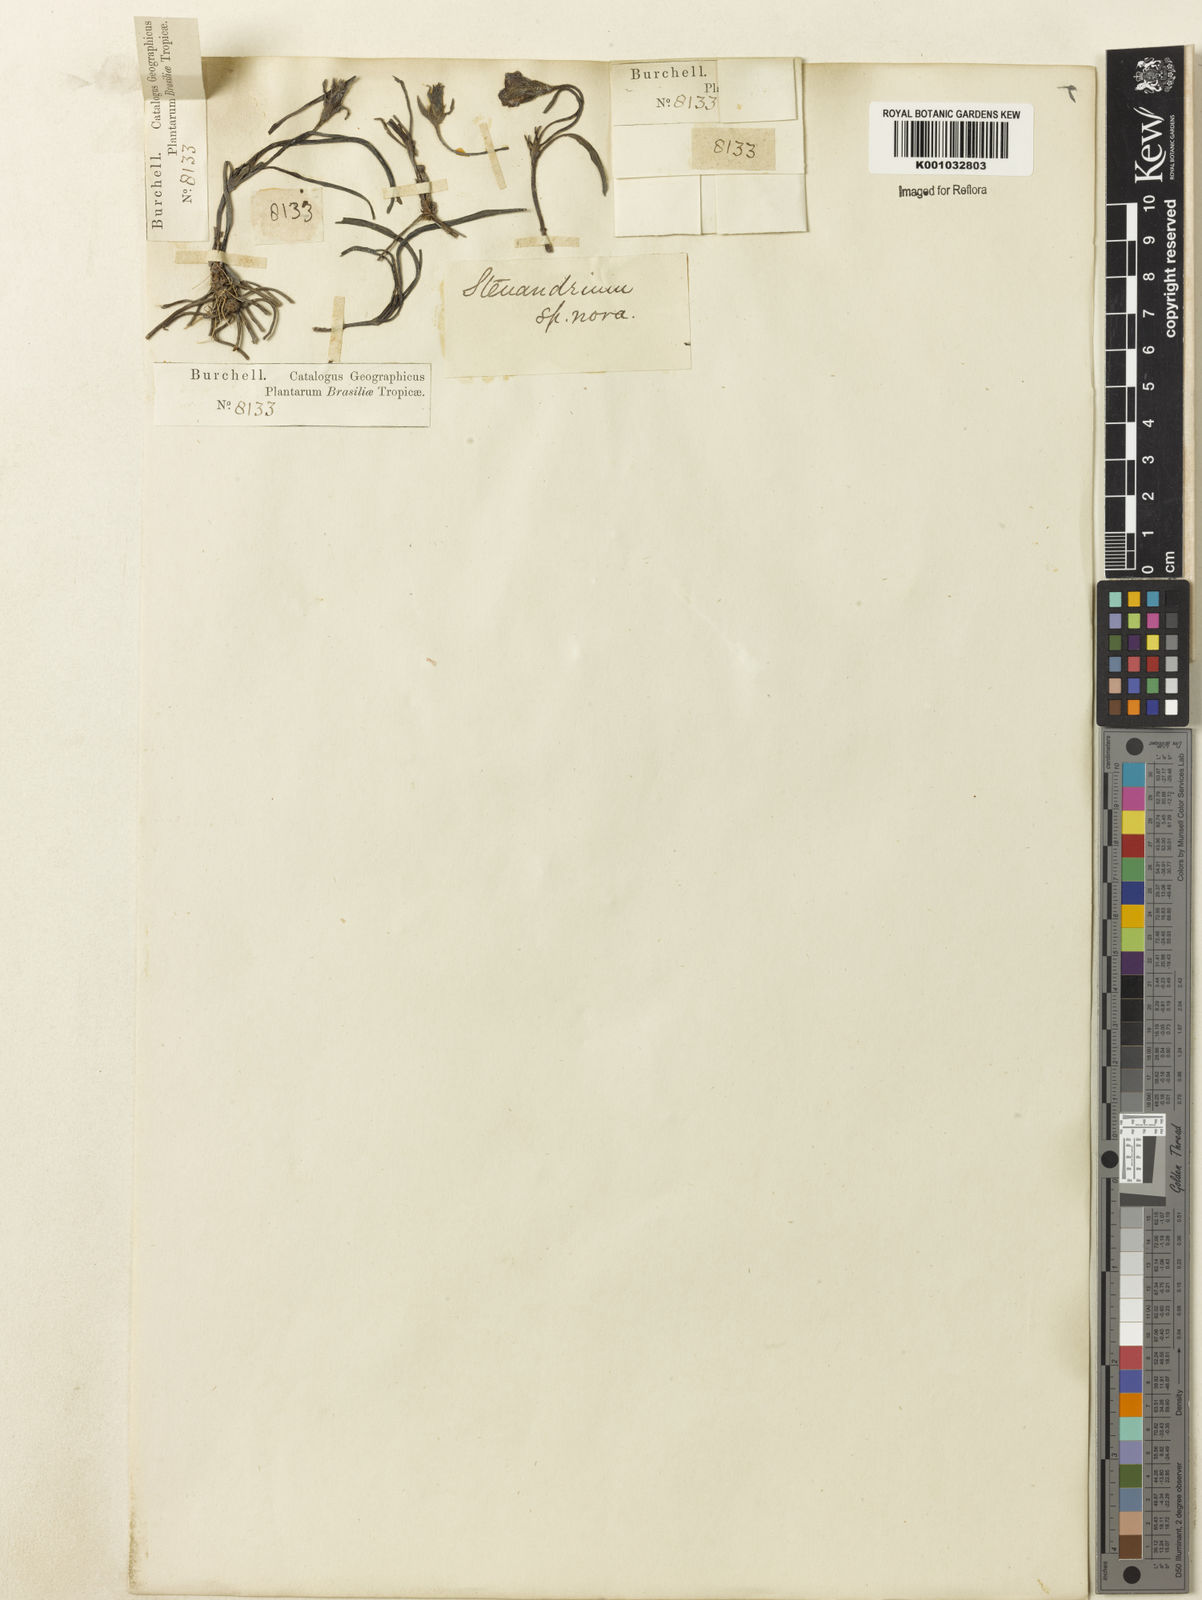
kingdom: Plantae
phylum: Tracheophyta
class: Magnoliopsida
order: Lamiales
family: Acanthaceae
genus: Stenandrium
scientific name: Stenandrium villosum
